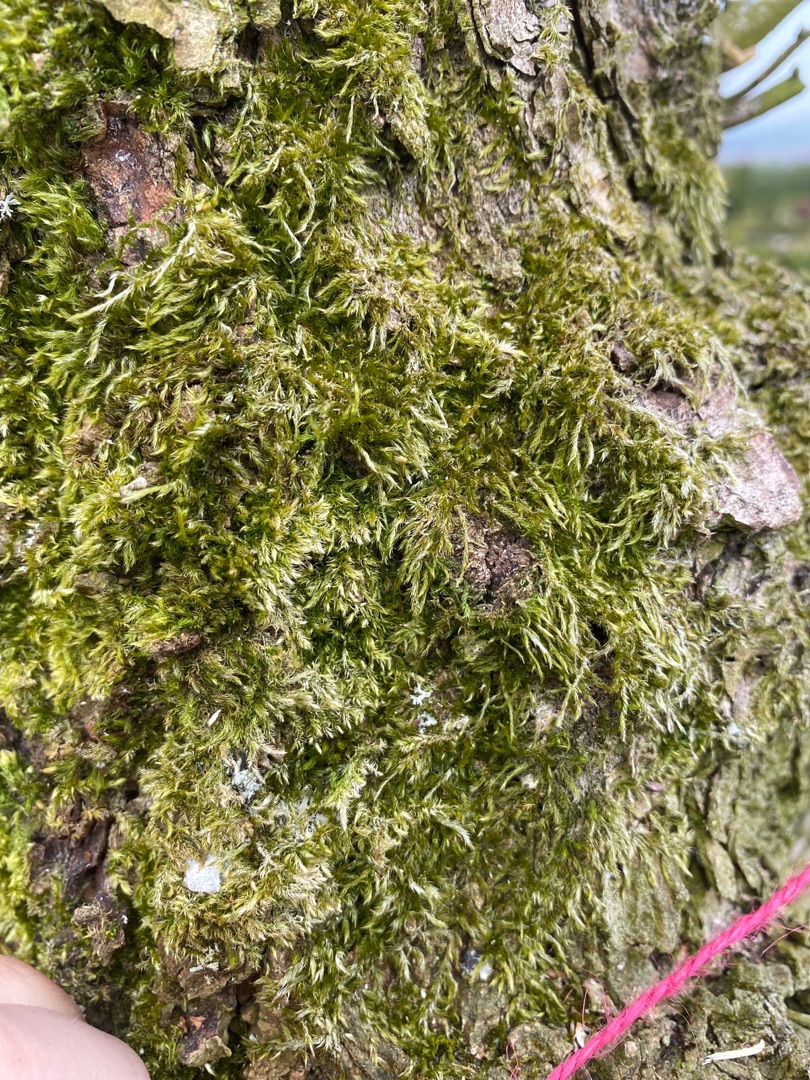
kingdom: Plantae
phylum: Bryophyta
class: Bryopsida
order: Hypnales
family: Hypnaceae
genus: Hypnum
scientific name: Hypnum
